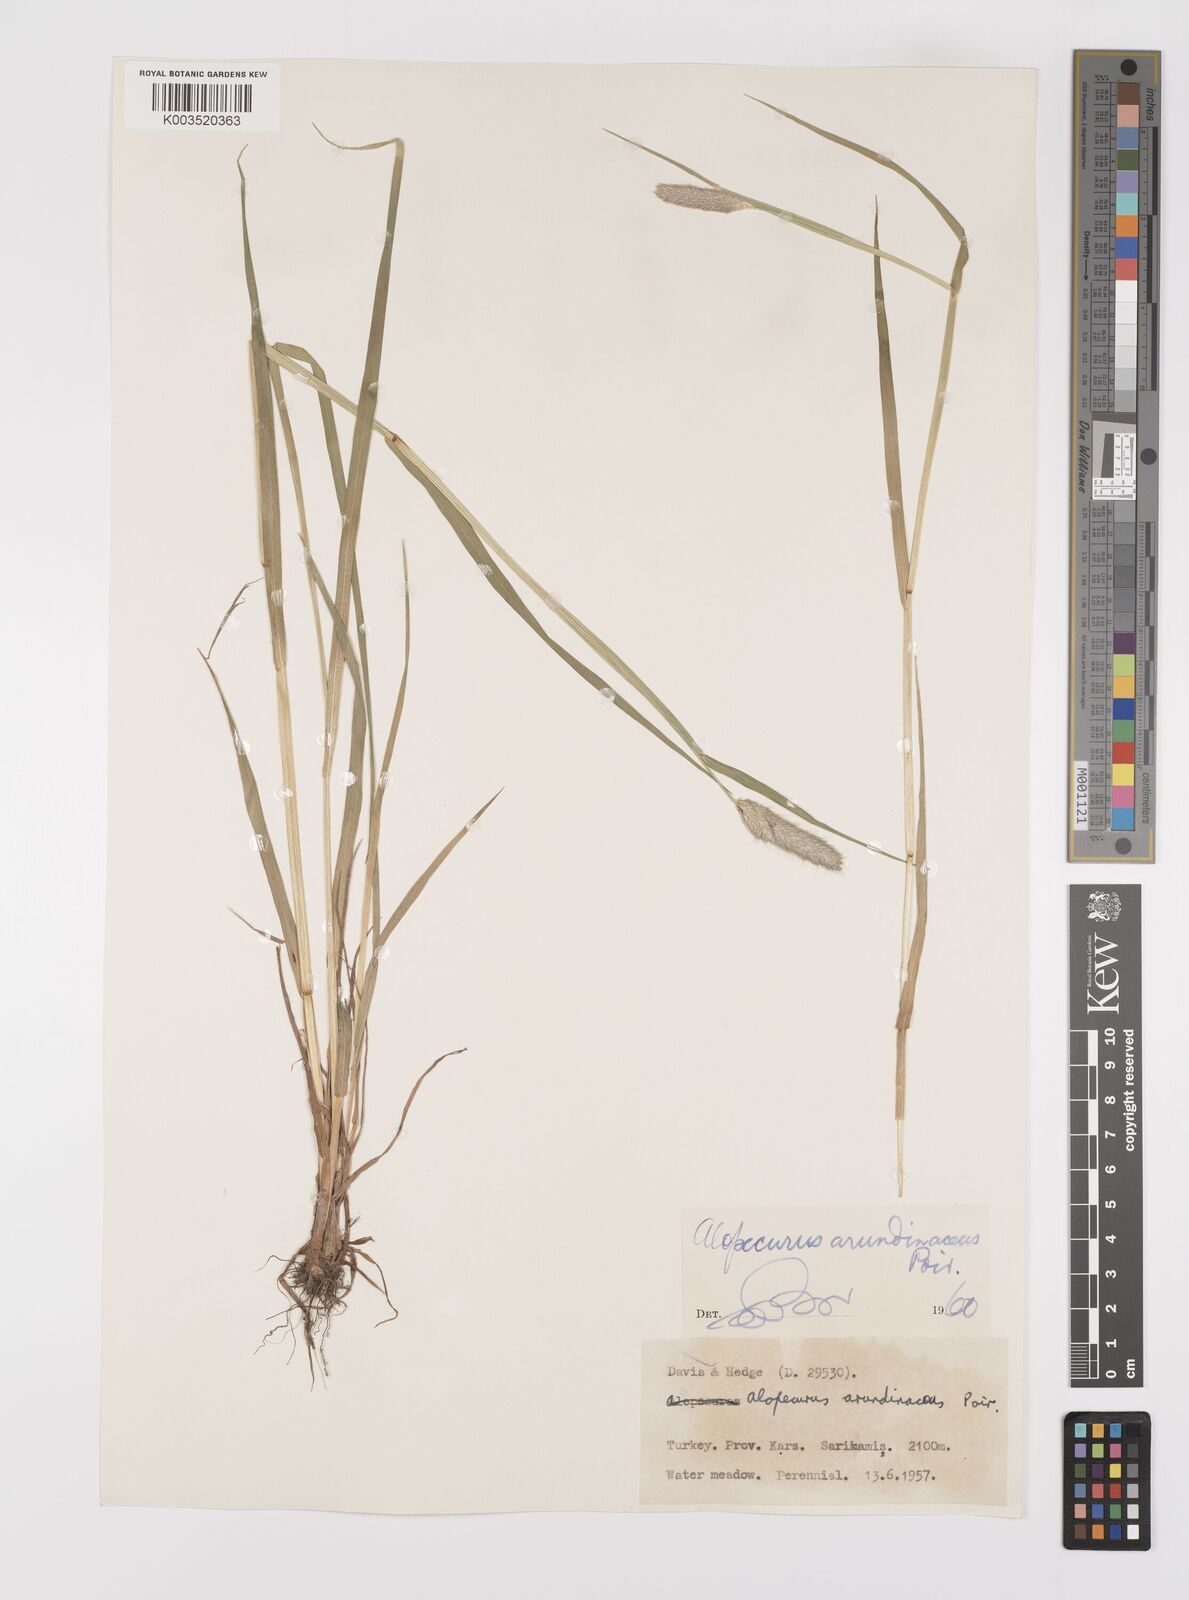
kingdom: Plantae
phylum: Tracheophyta
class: Liliopsida
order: Poales
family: Poaceae
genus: Alopecurus
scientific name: Alopecurus arundinaceus
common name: Creeping meadow foxtail
